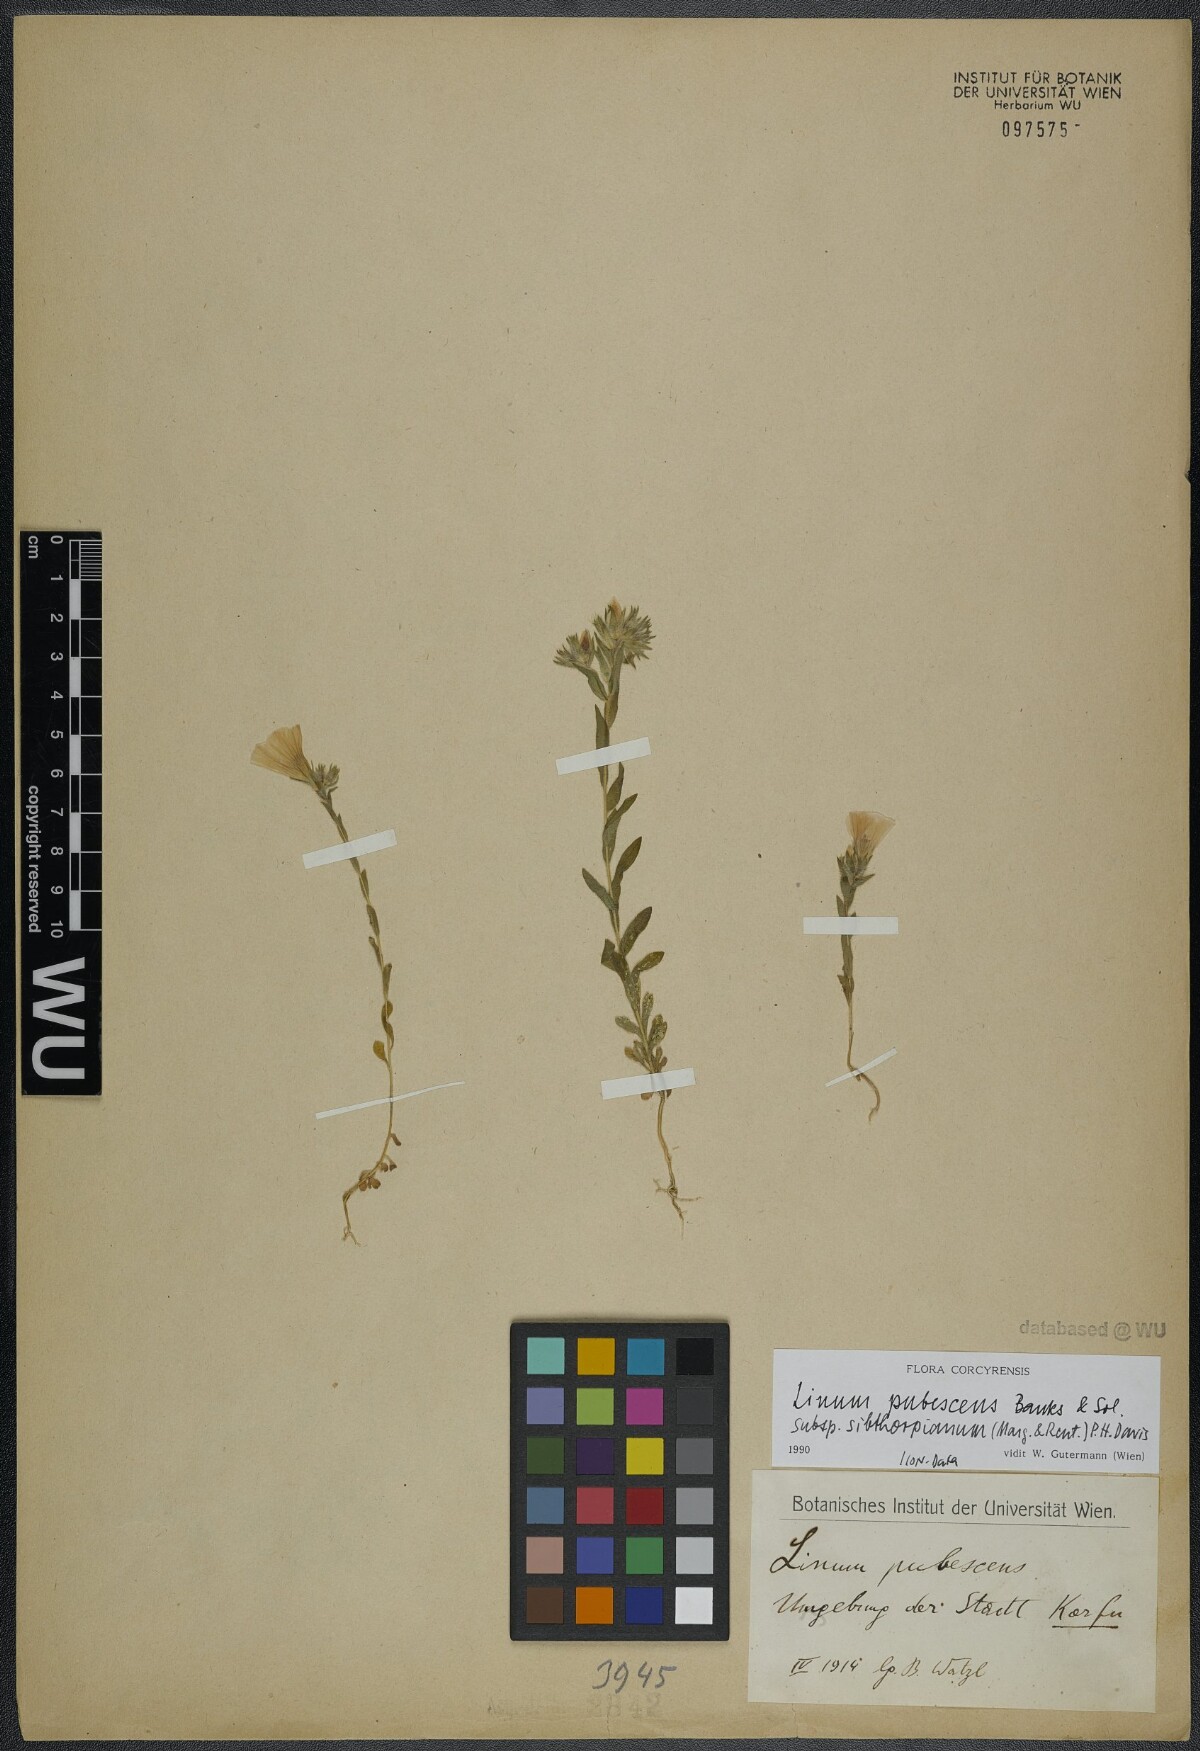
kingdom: Plantae
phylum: Tracheophyta
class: Magnoliopsida
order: Malpighiales
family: Linaceae
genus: Linum
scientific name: Linum pubescens
